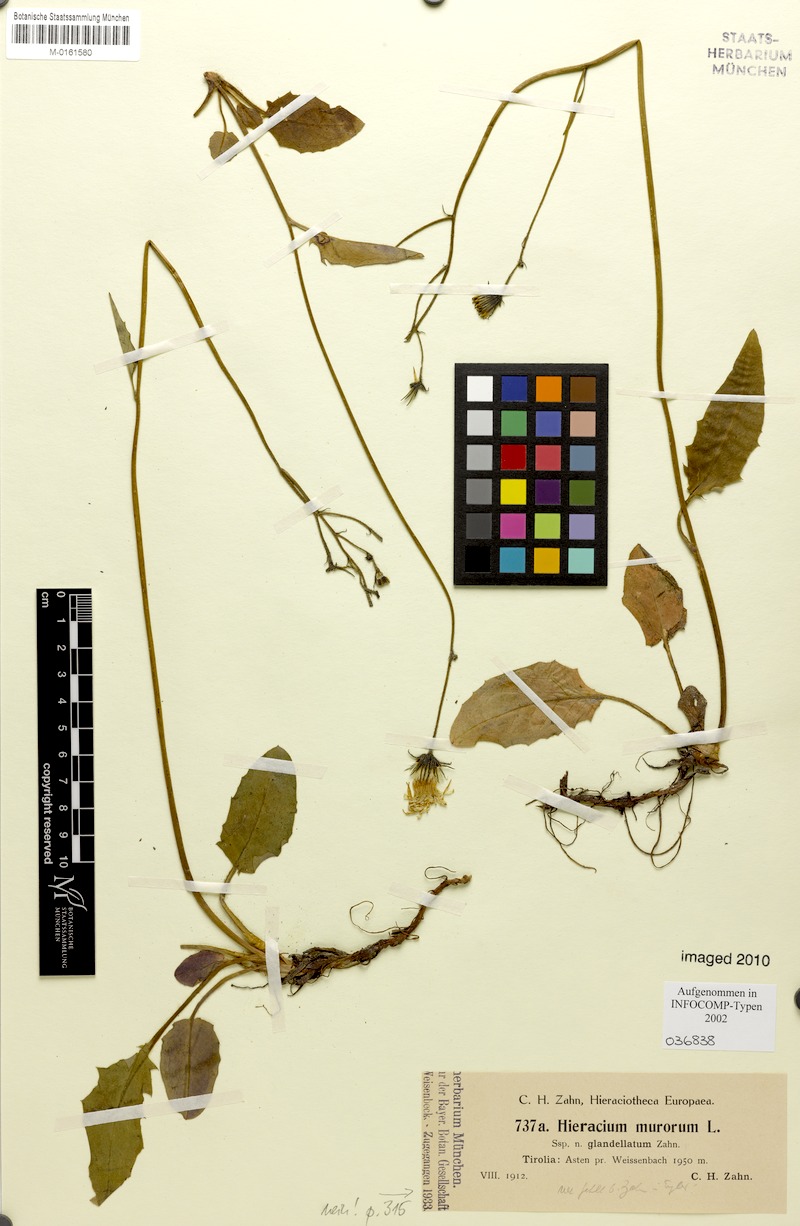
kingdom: Plantae
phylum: Tracheophyta
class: Magnoliopsida
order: Asterales
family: Asteraceae
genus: Hieracium
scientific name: Hieracium murorum
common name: Wall hawkweed
